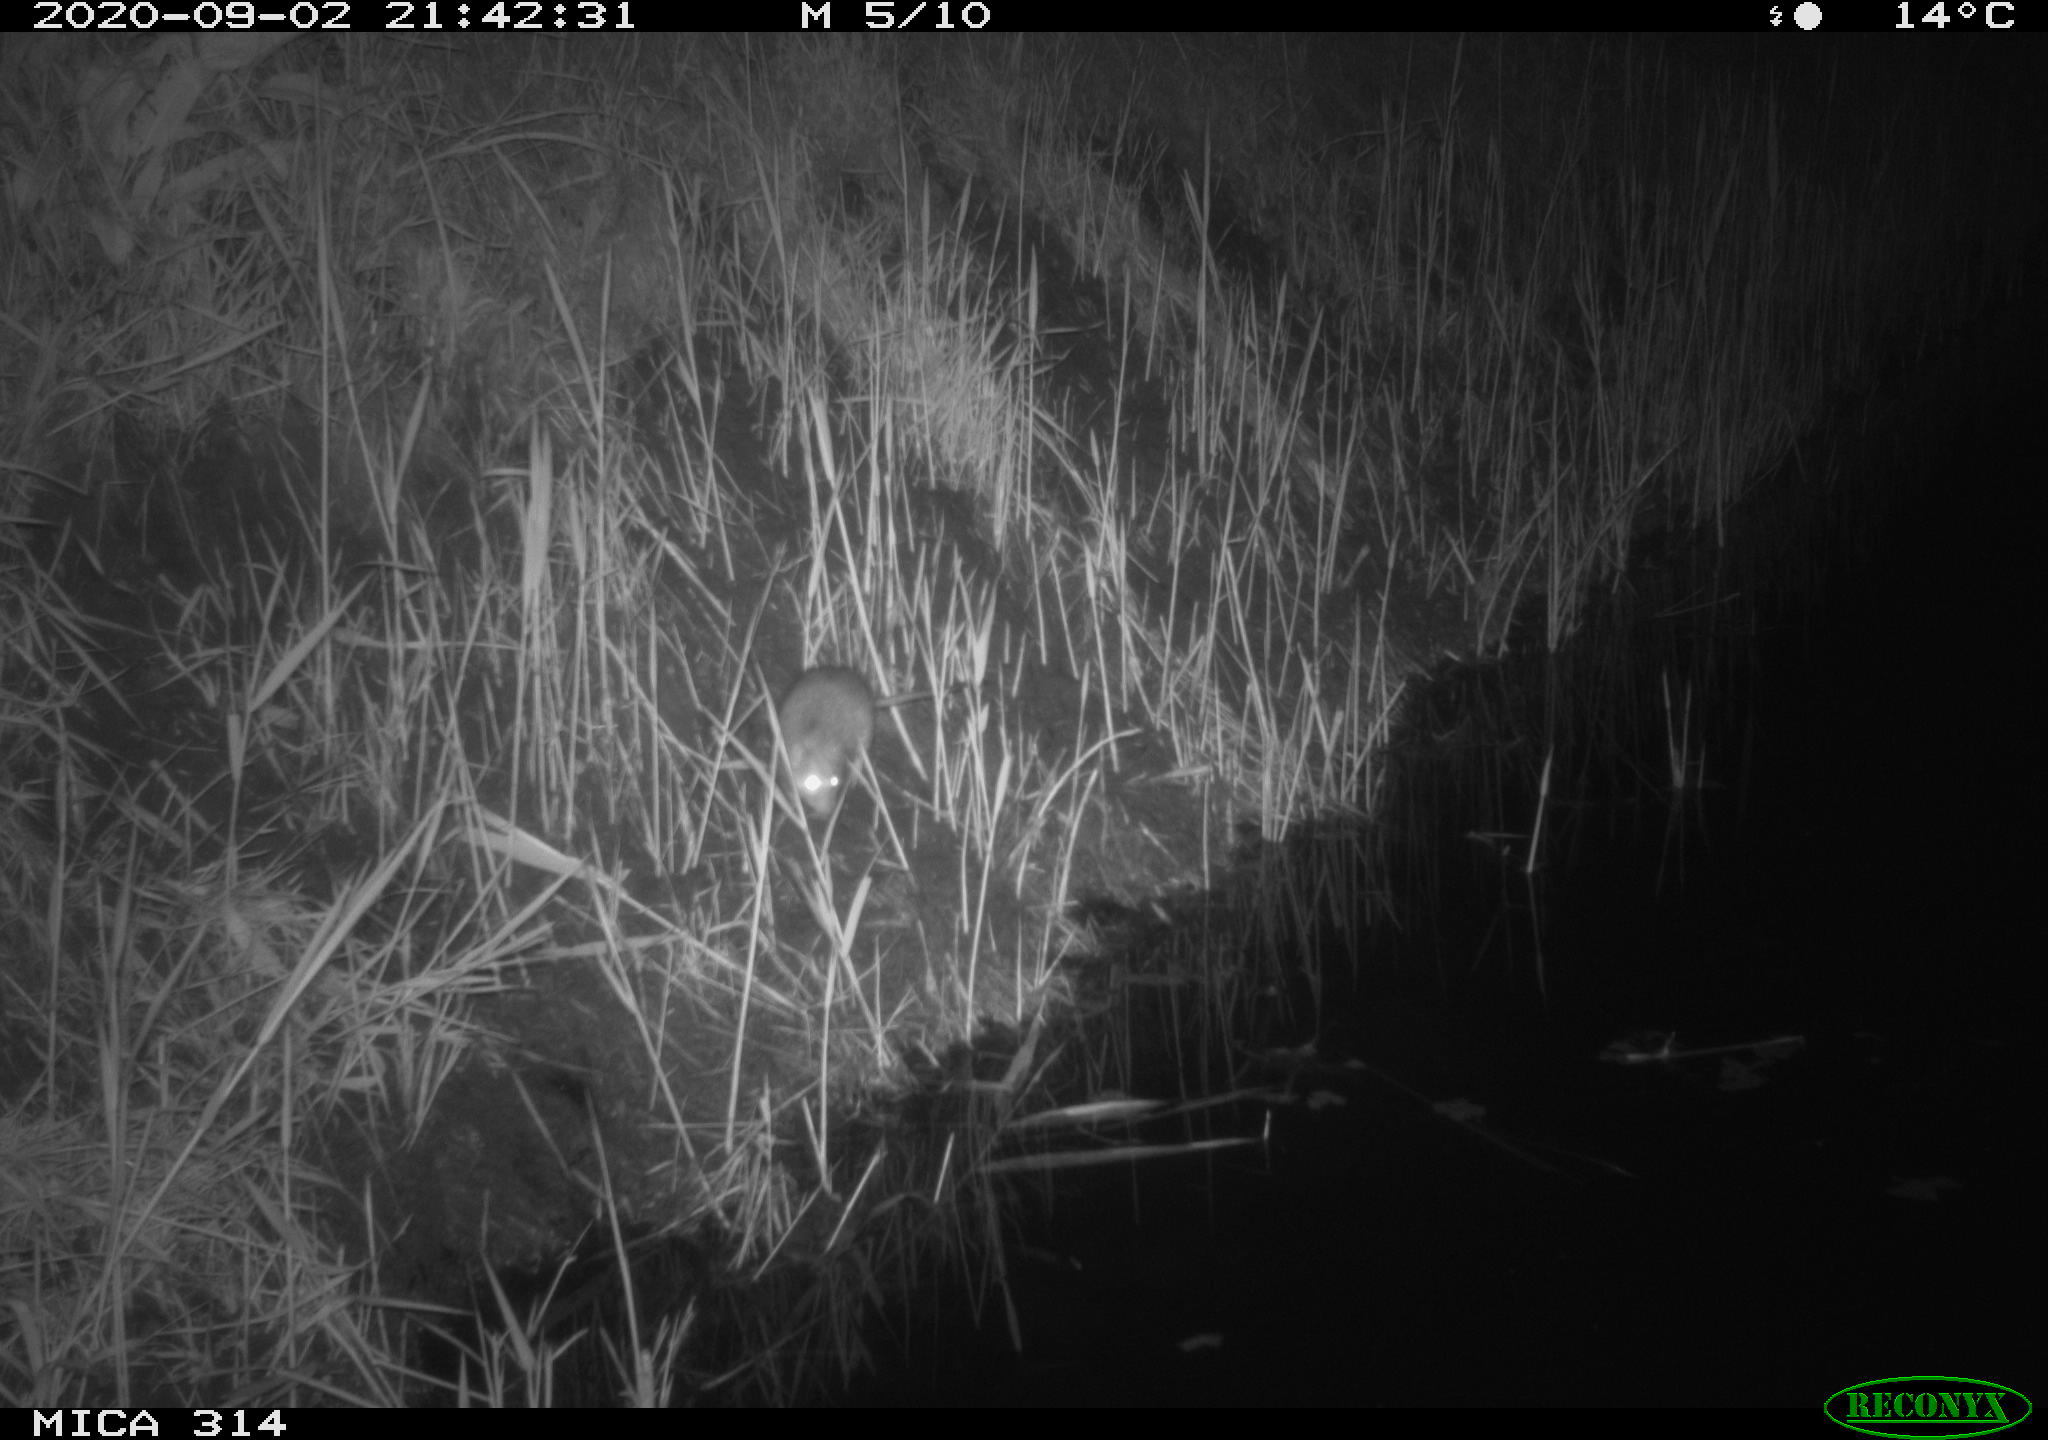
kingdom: Animalia
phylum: Chordata
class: Mammalia
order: Rodentia
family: Muridae
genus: Rattus
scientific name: Rattus norvegicus
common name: Brown rat
